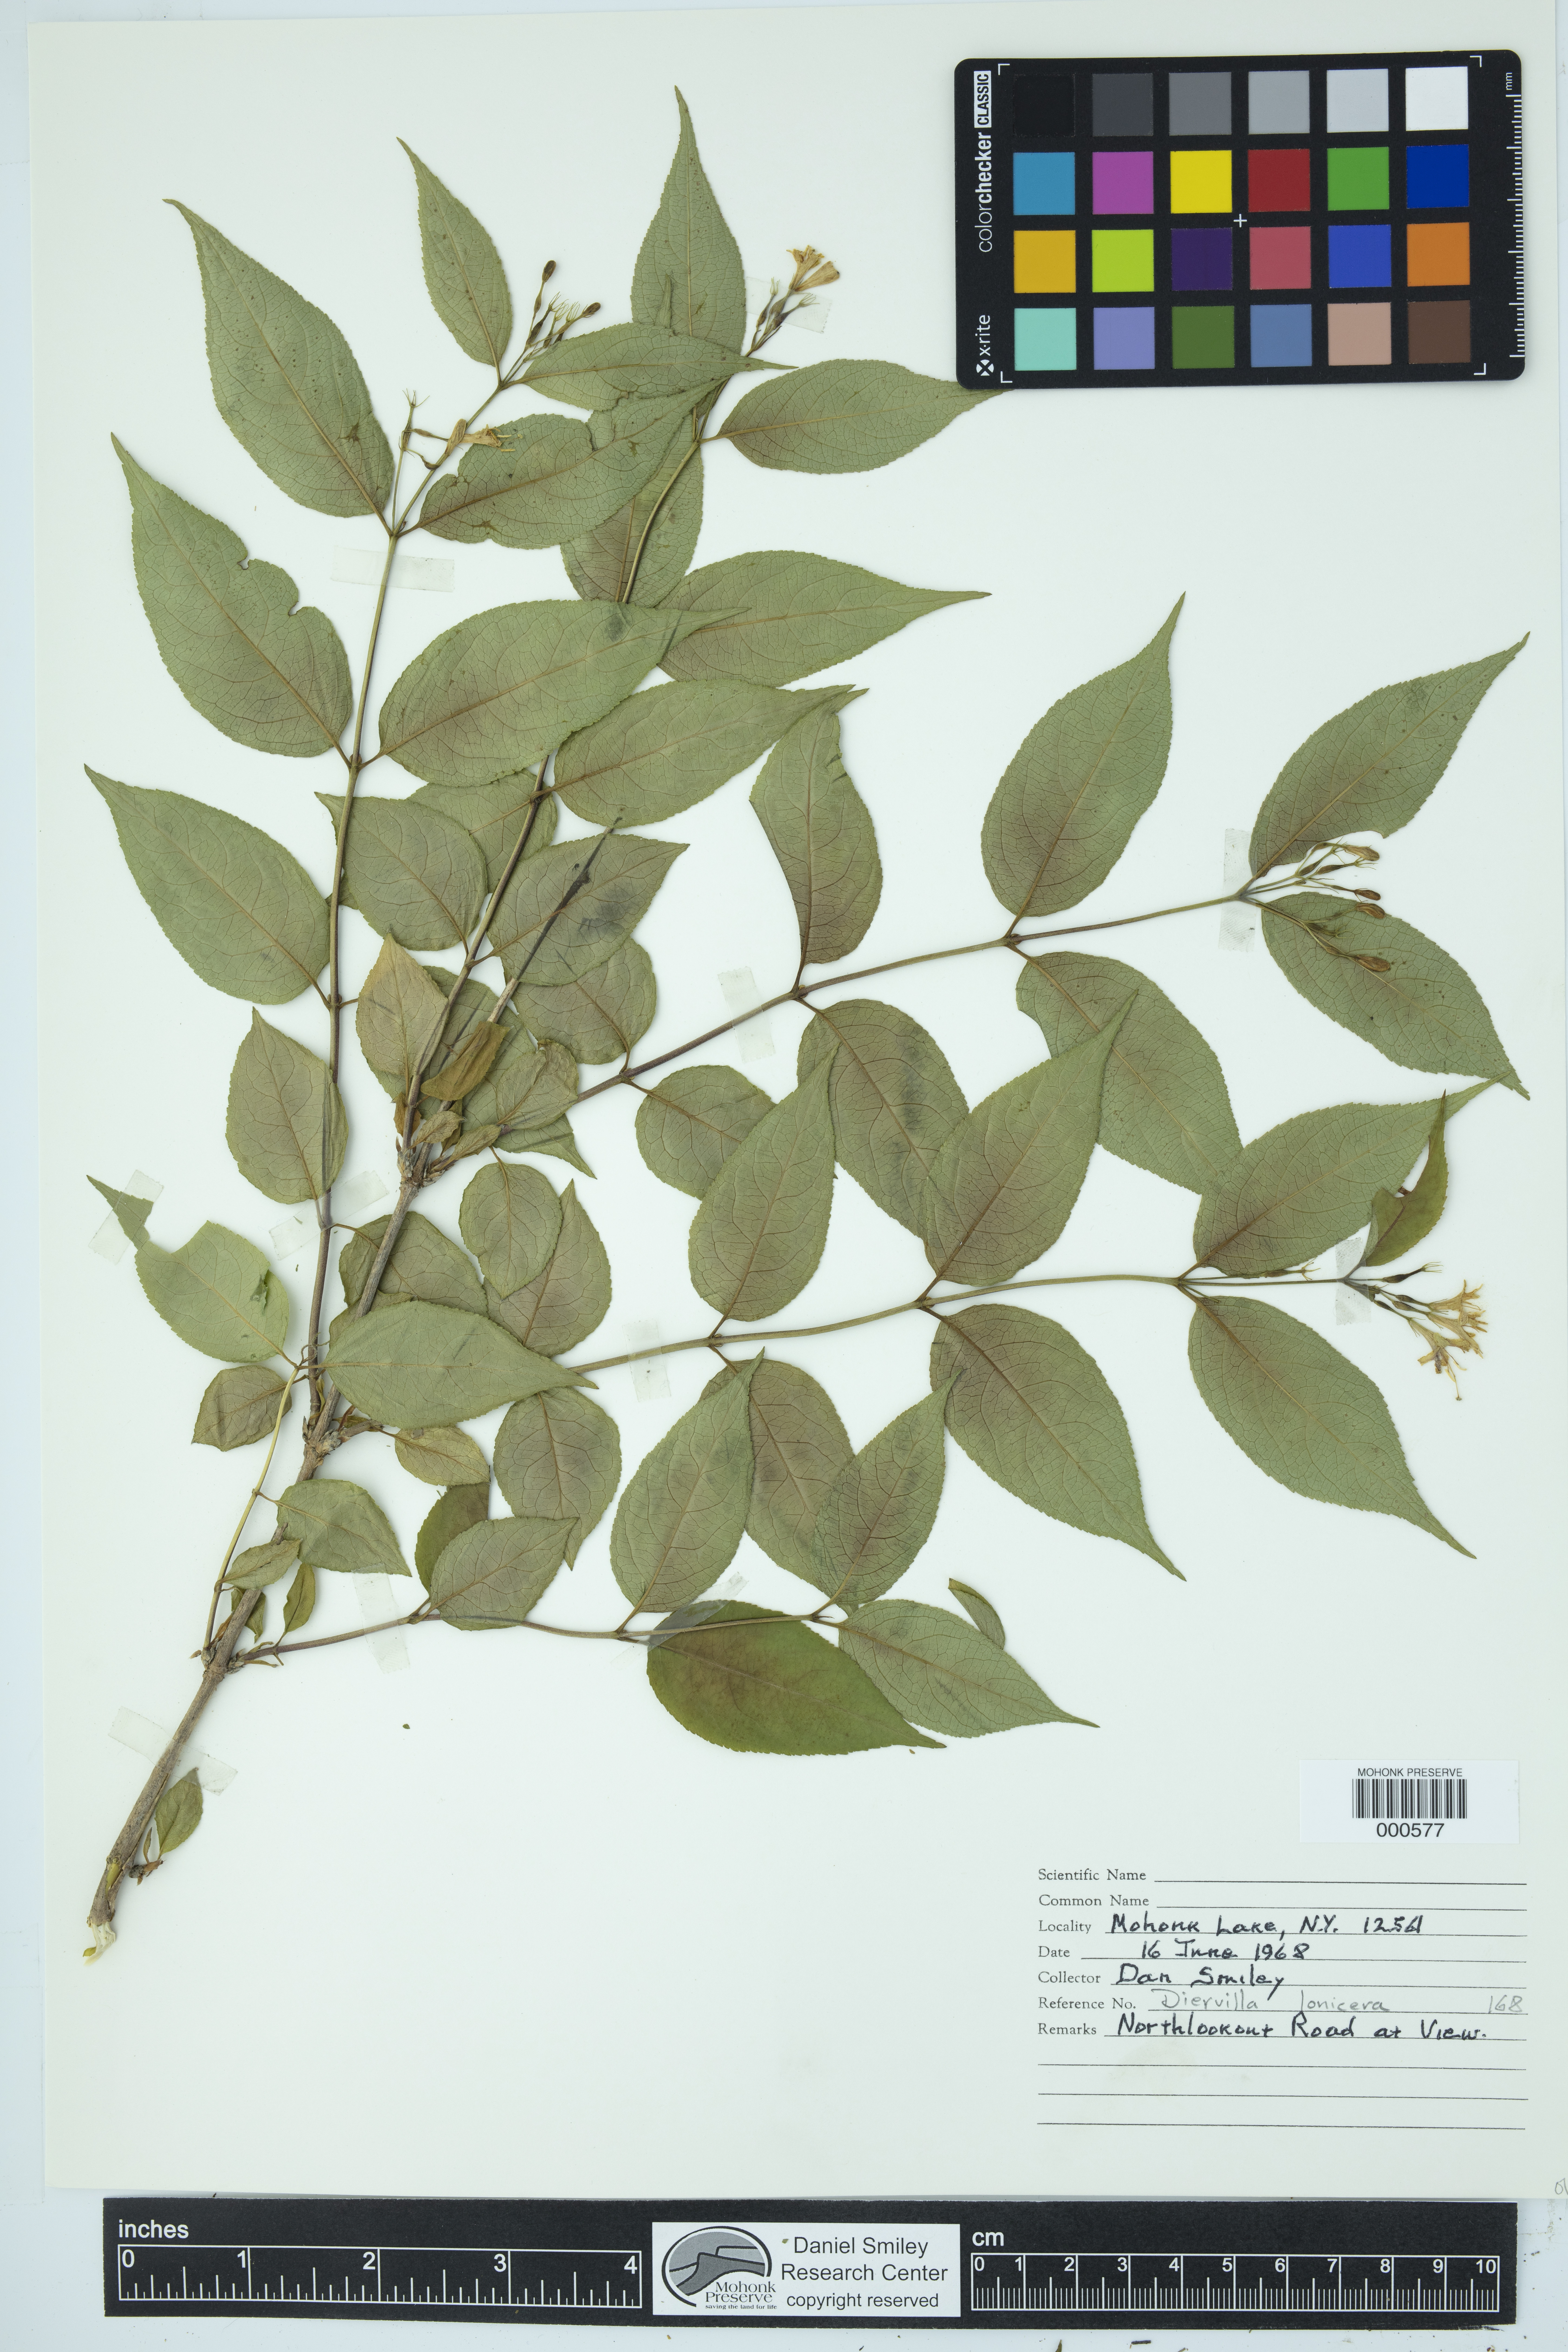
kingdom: Plantae
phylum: Tracheophyta
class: Magnoliopsida
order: Dipsacales
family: Caprifoliaceae
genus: Diervilla
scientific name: Diervilla lonicera
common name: Bush-honeysuckle
